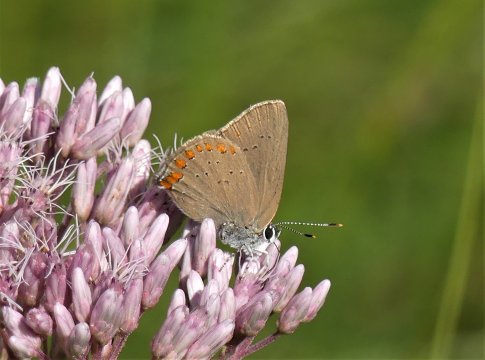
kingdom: Animalia
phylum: Arthropoda
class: Insecta
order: Lepidoptera
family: Lycaenidae
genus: Harkenclenus
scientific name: Harkenclenus titus
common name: Coral Hairstreak
